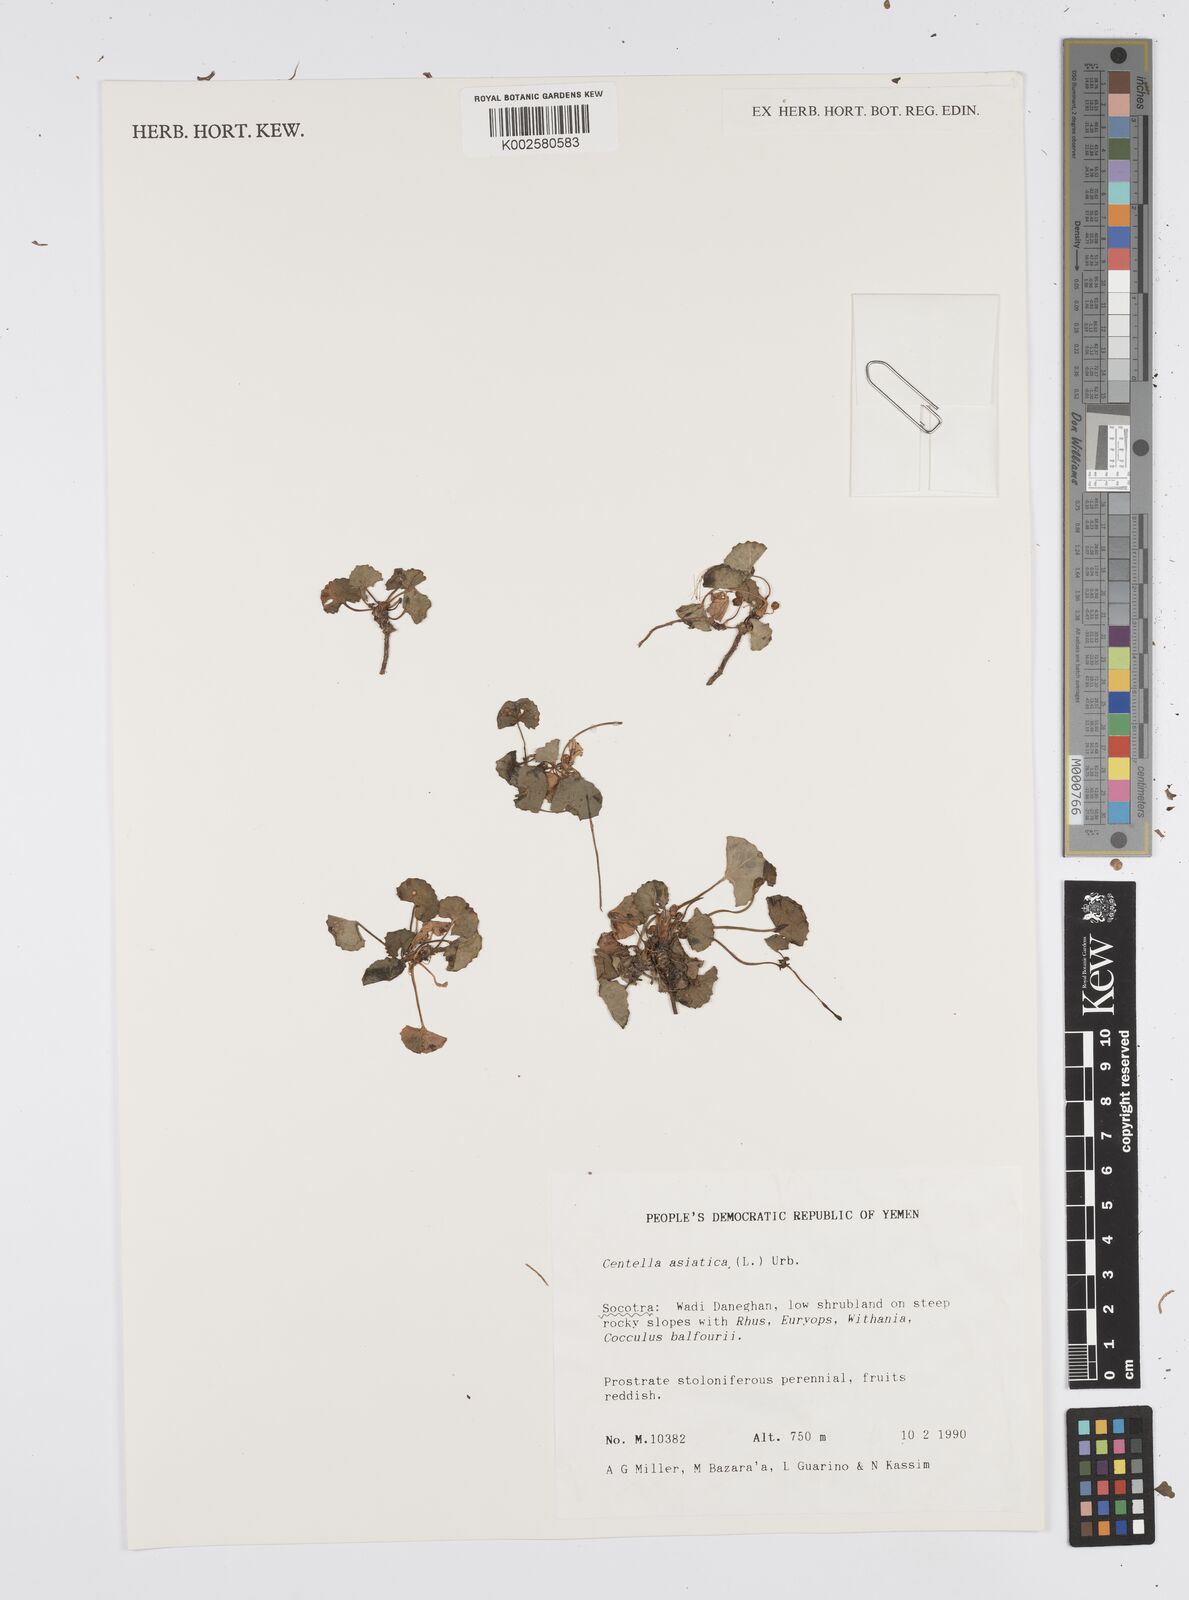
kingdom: Plantae
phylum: Tracheophyta
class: Magnoliopsida
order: Apiales
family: Apiaceae
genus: Centella
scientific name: Centella asiatica
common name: Spadeleaf
